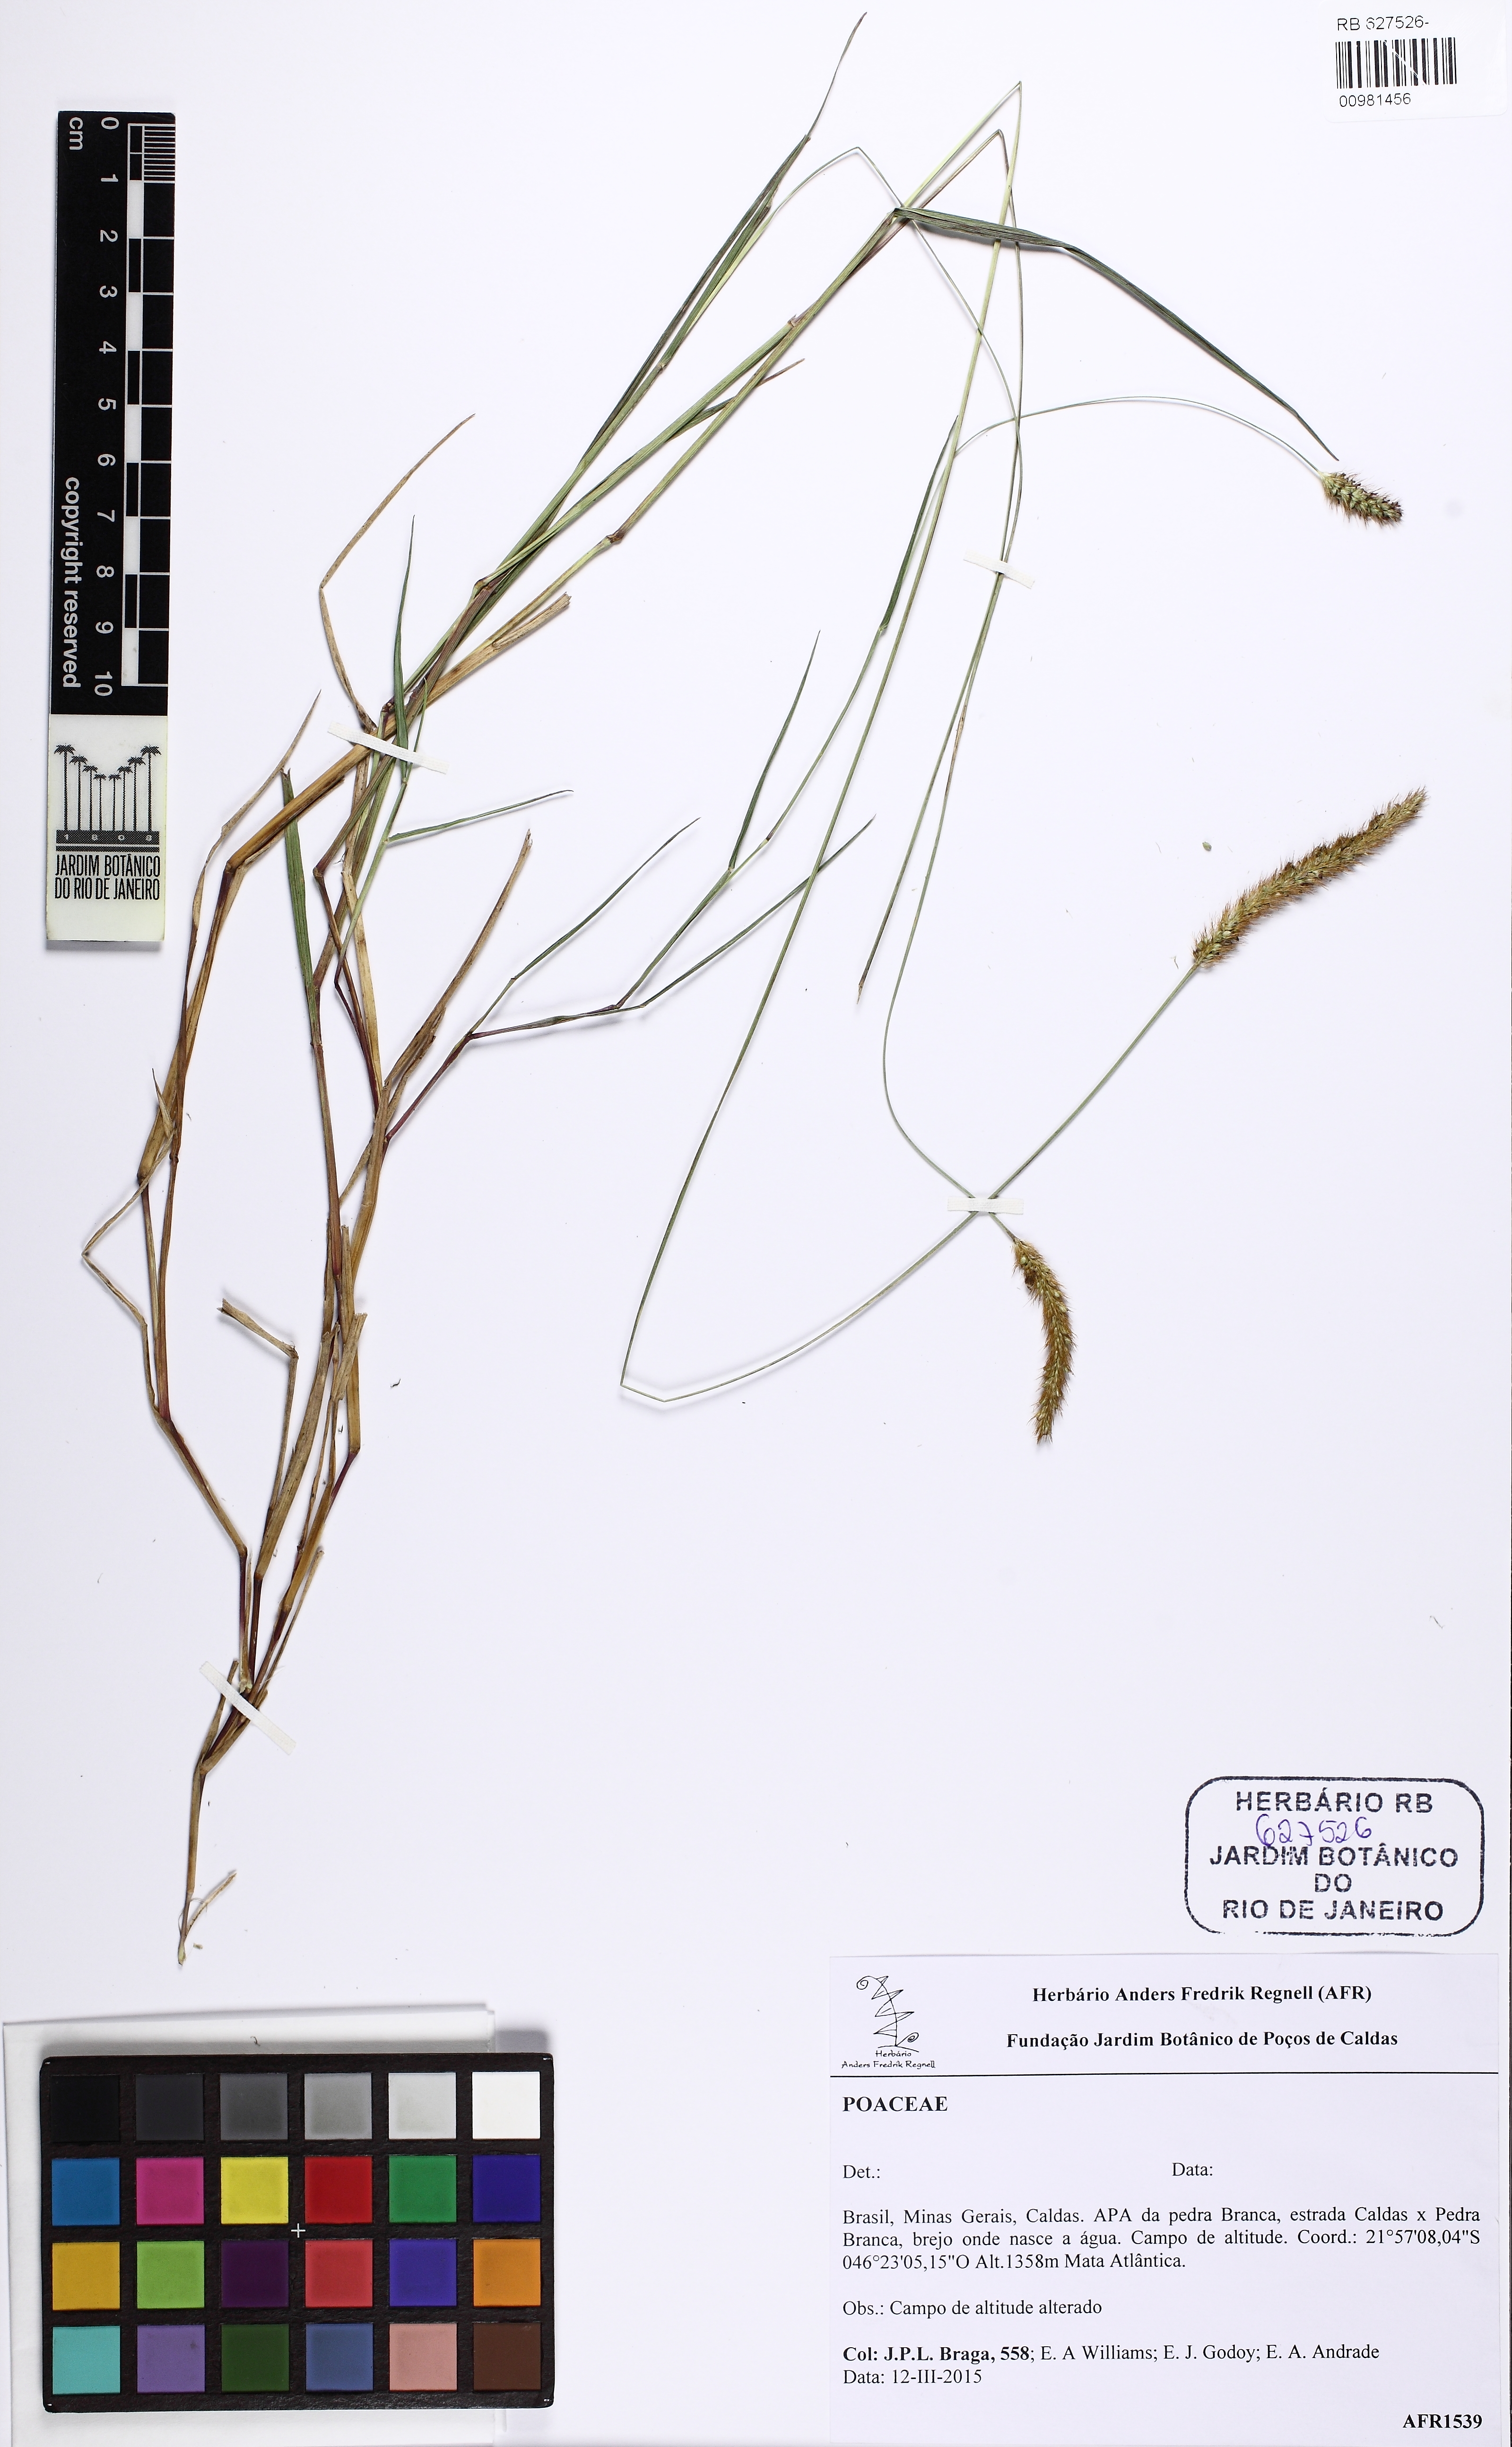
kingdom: Plantae
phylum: Tracheophyta
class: Liliopsida
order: Poales
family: Poaceae
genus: Setaria
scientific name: Setaria parviflora
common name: Knotroot bristle-grass
